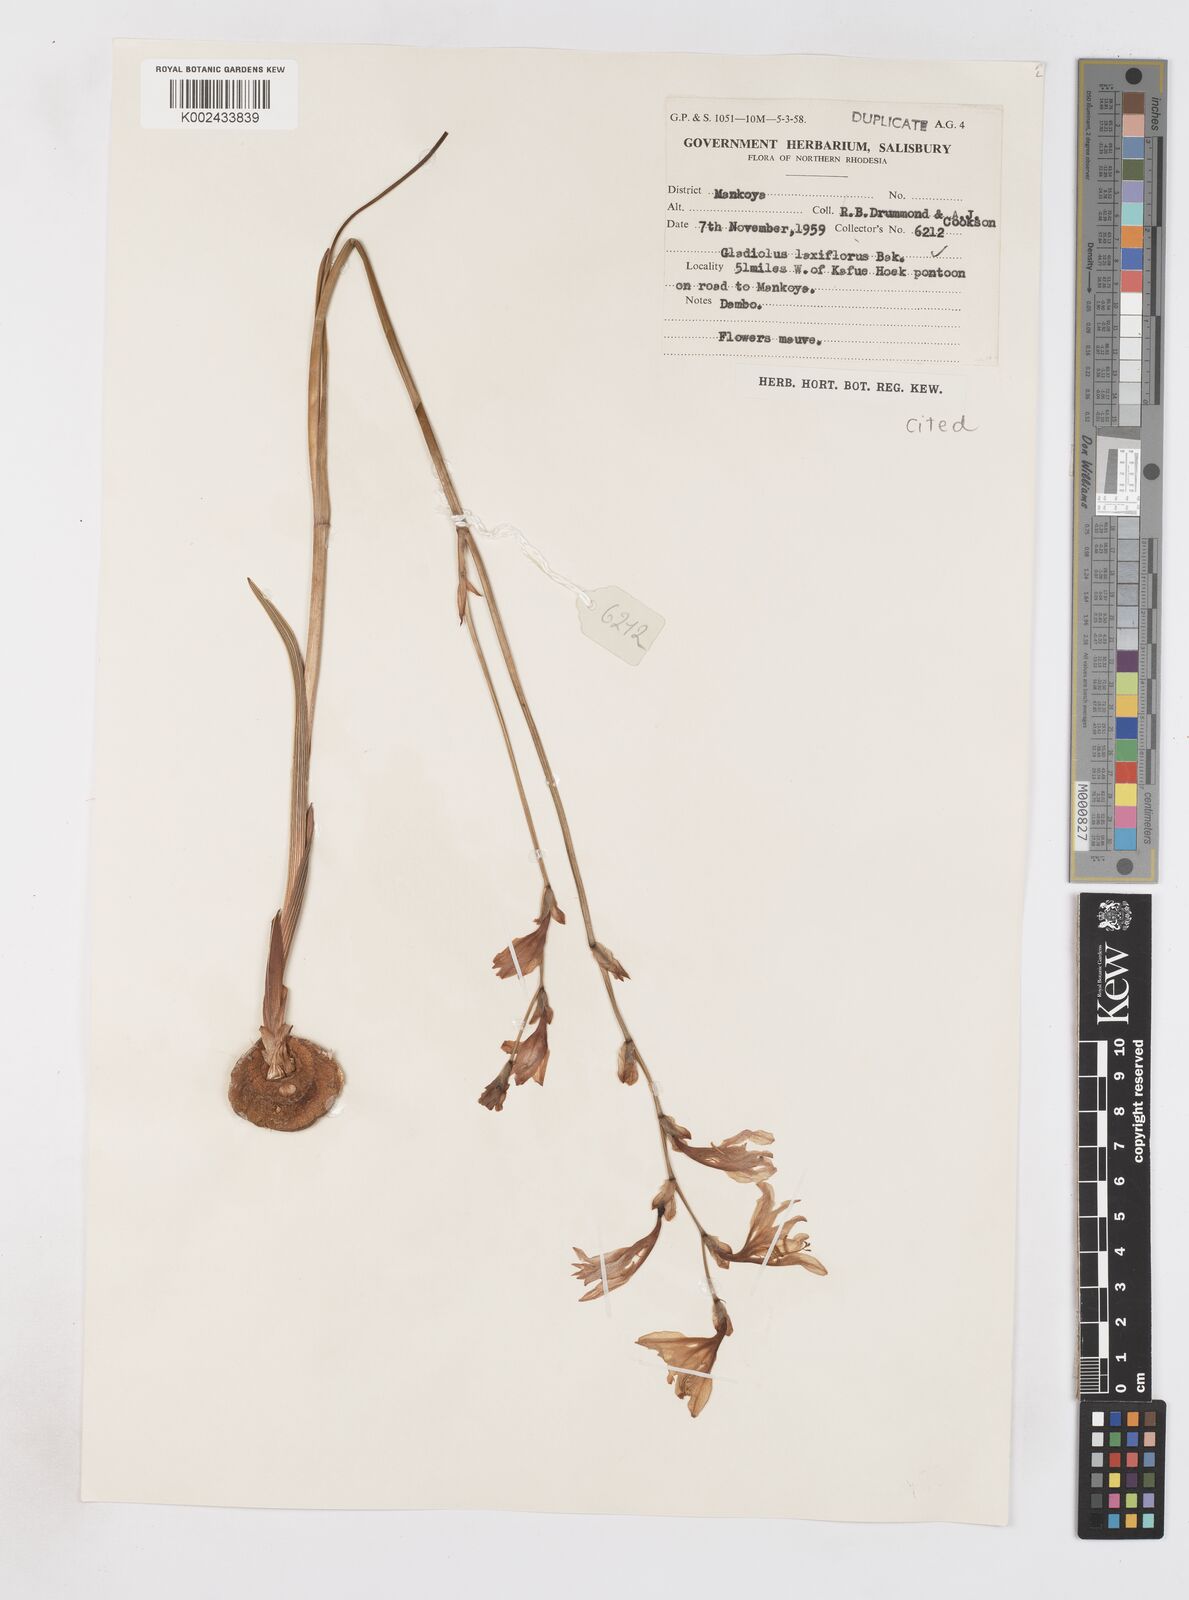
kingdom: Plantae
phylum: Tracheophyta
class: Liliopsida
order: Asparagales
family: Iridaceae
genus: Gladiolus
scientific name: Gladiolus laxiflorus
